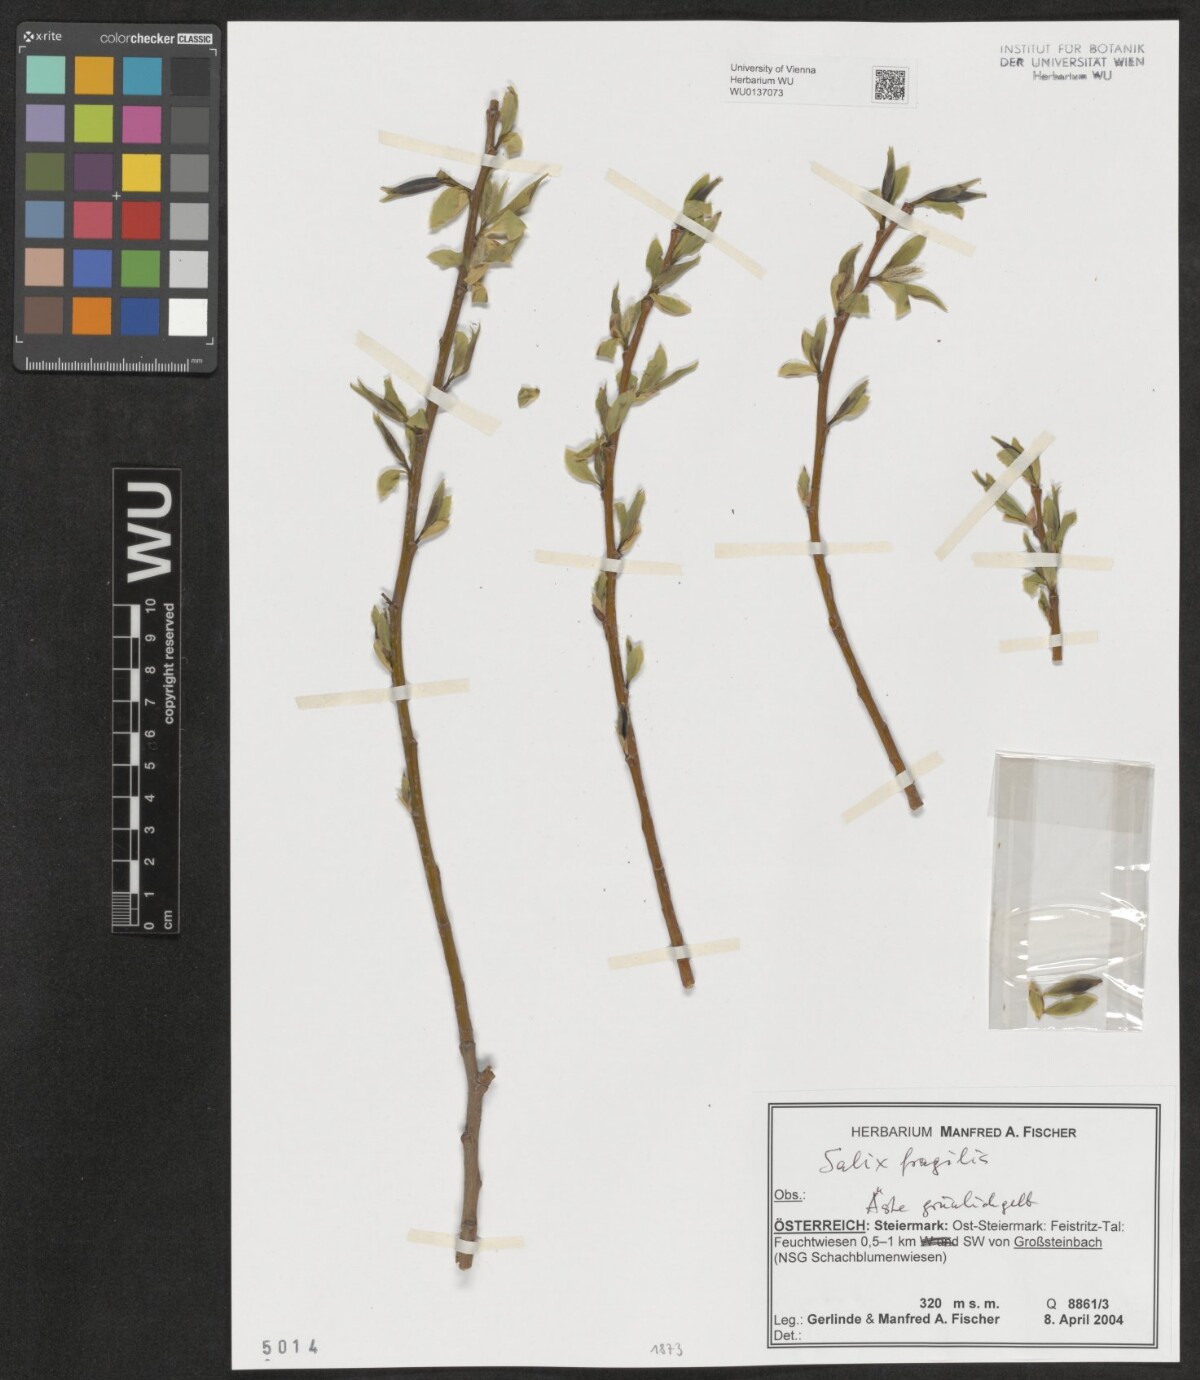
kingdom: Plantae
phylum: Tracheophyta
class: Magnoliopsida
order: Malpighiales
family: Salicaceae
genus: Salix
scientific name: Salix fragilis
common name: Crack willow
